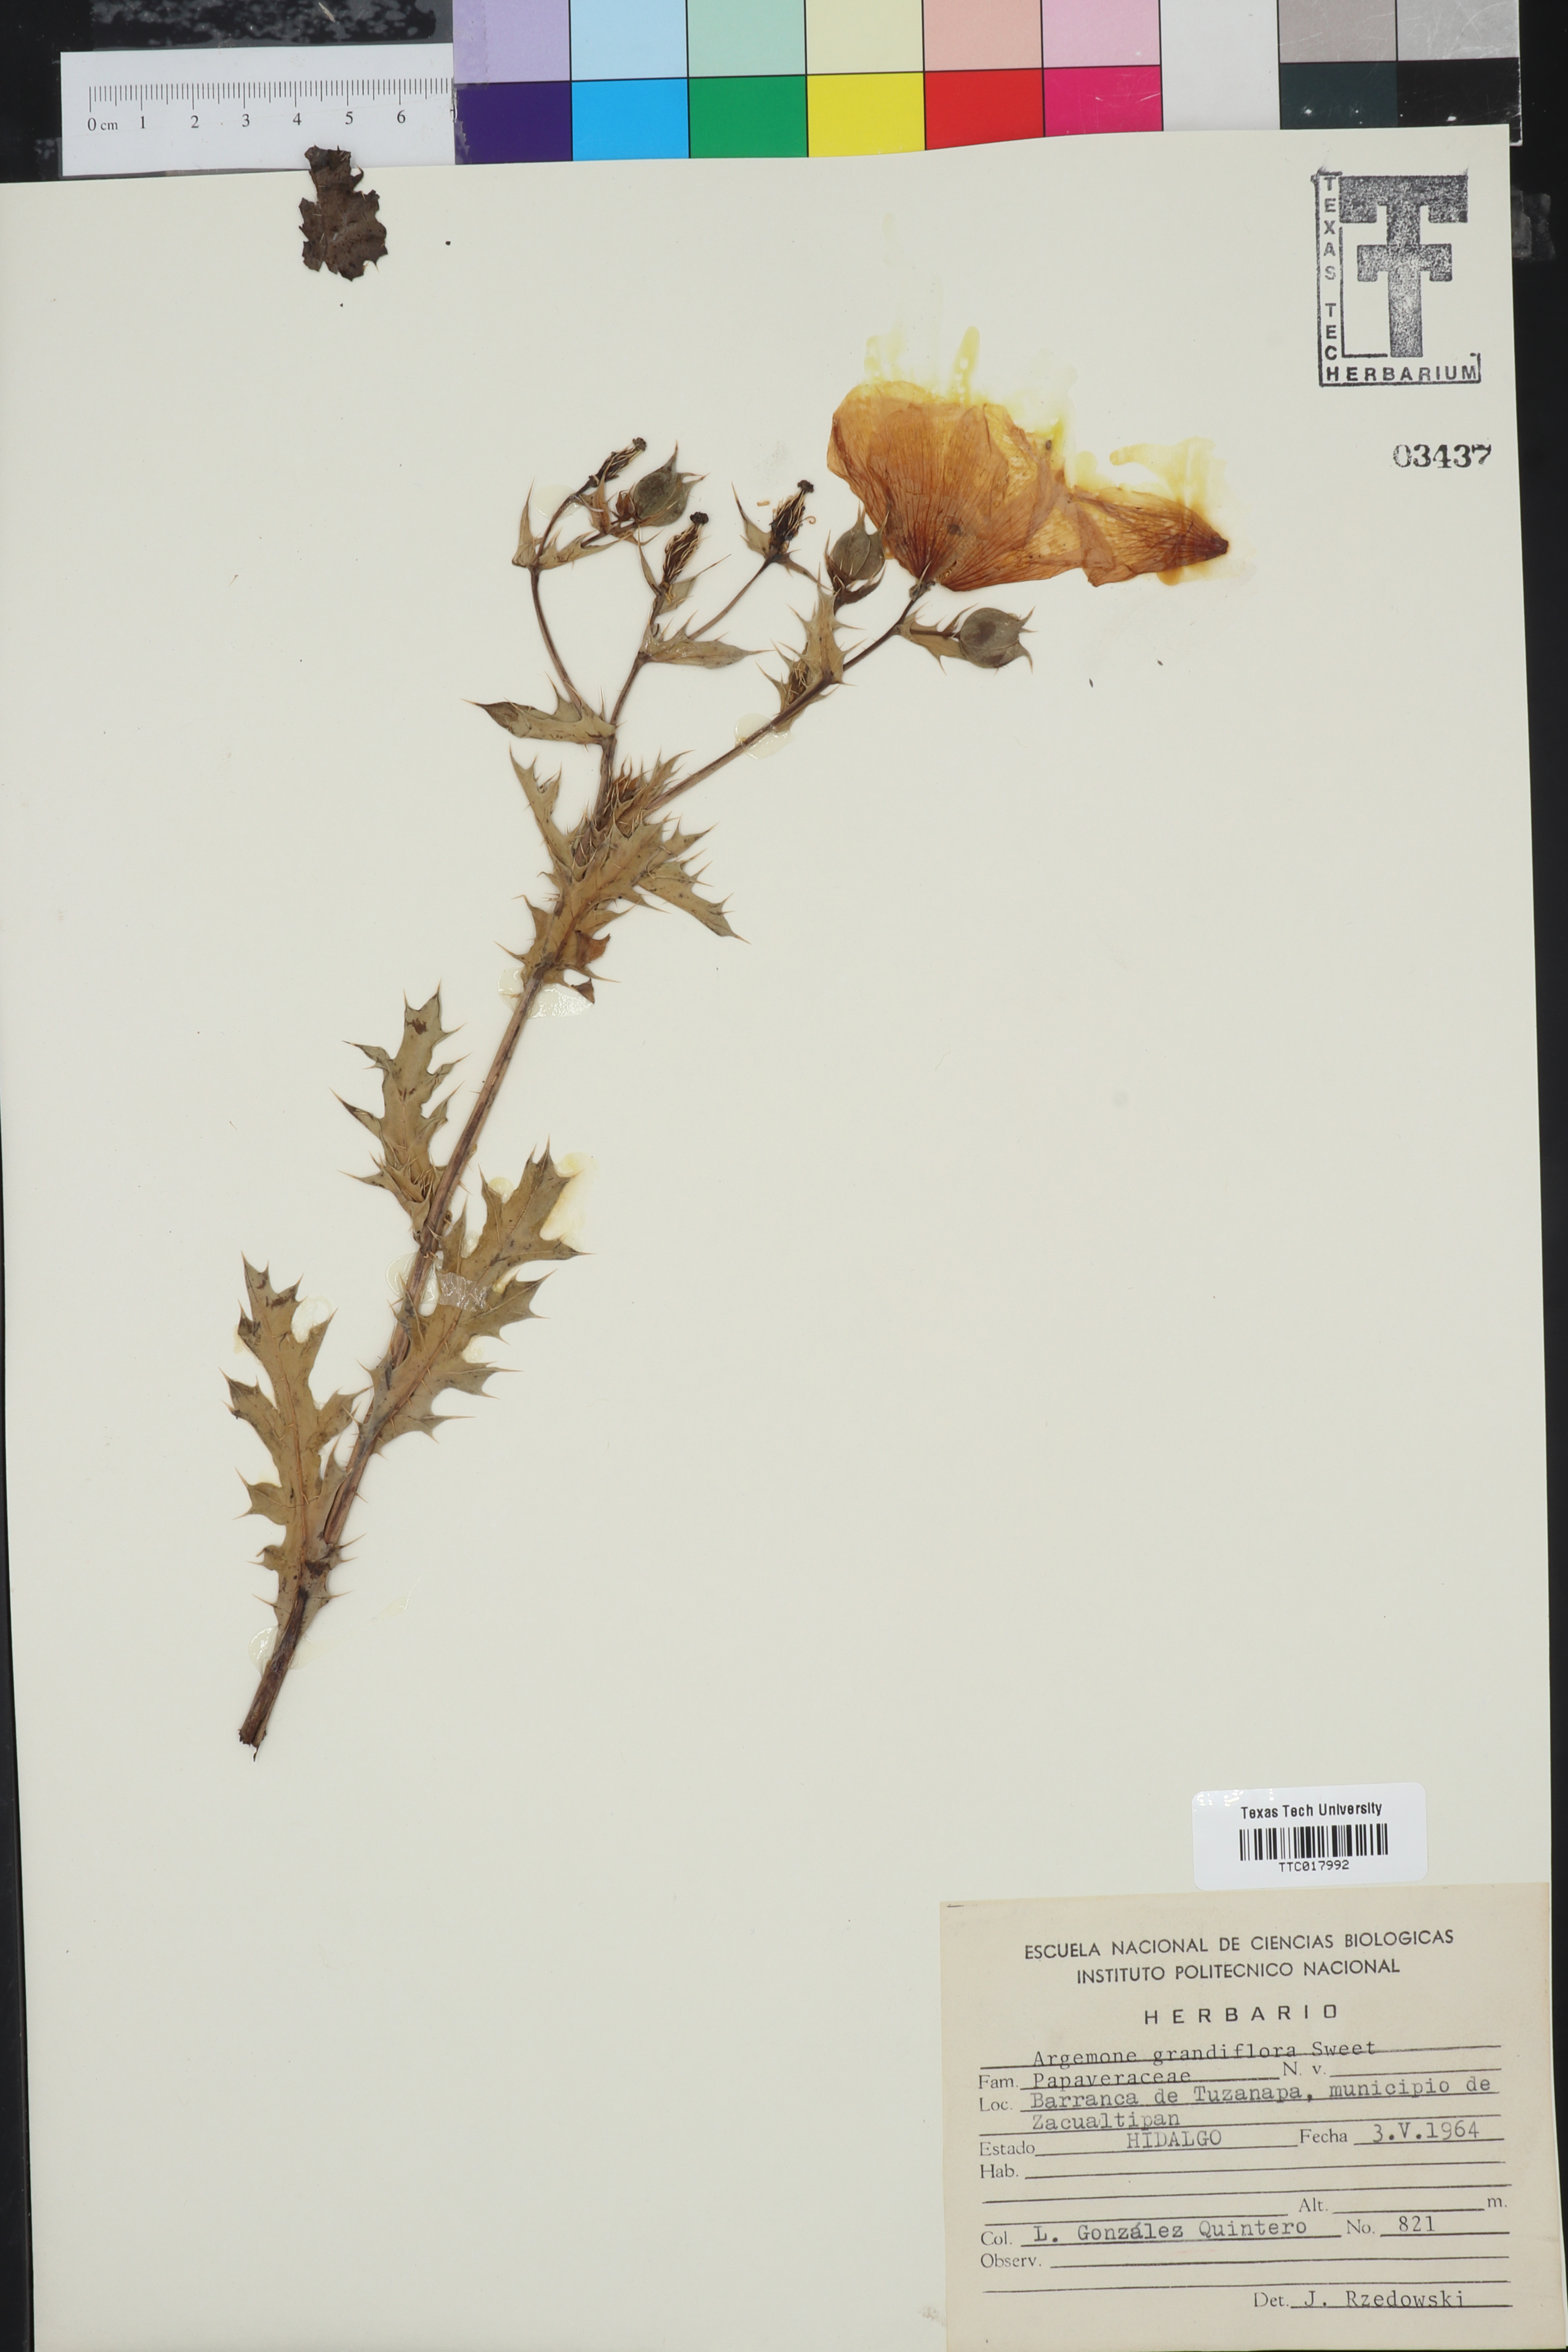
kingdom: Plantae
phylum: Tracheophyta
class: Magnoliopsida
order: Ranunculales
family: Papaveraceae
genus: Argemone
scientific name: Argemone grandiflora
